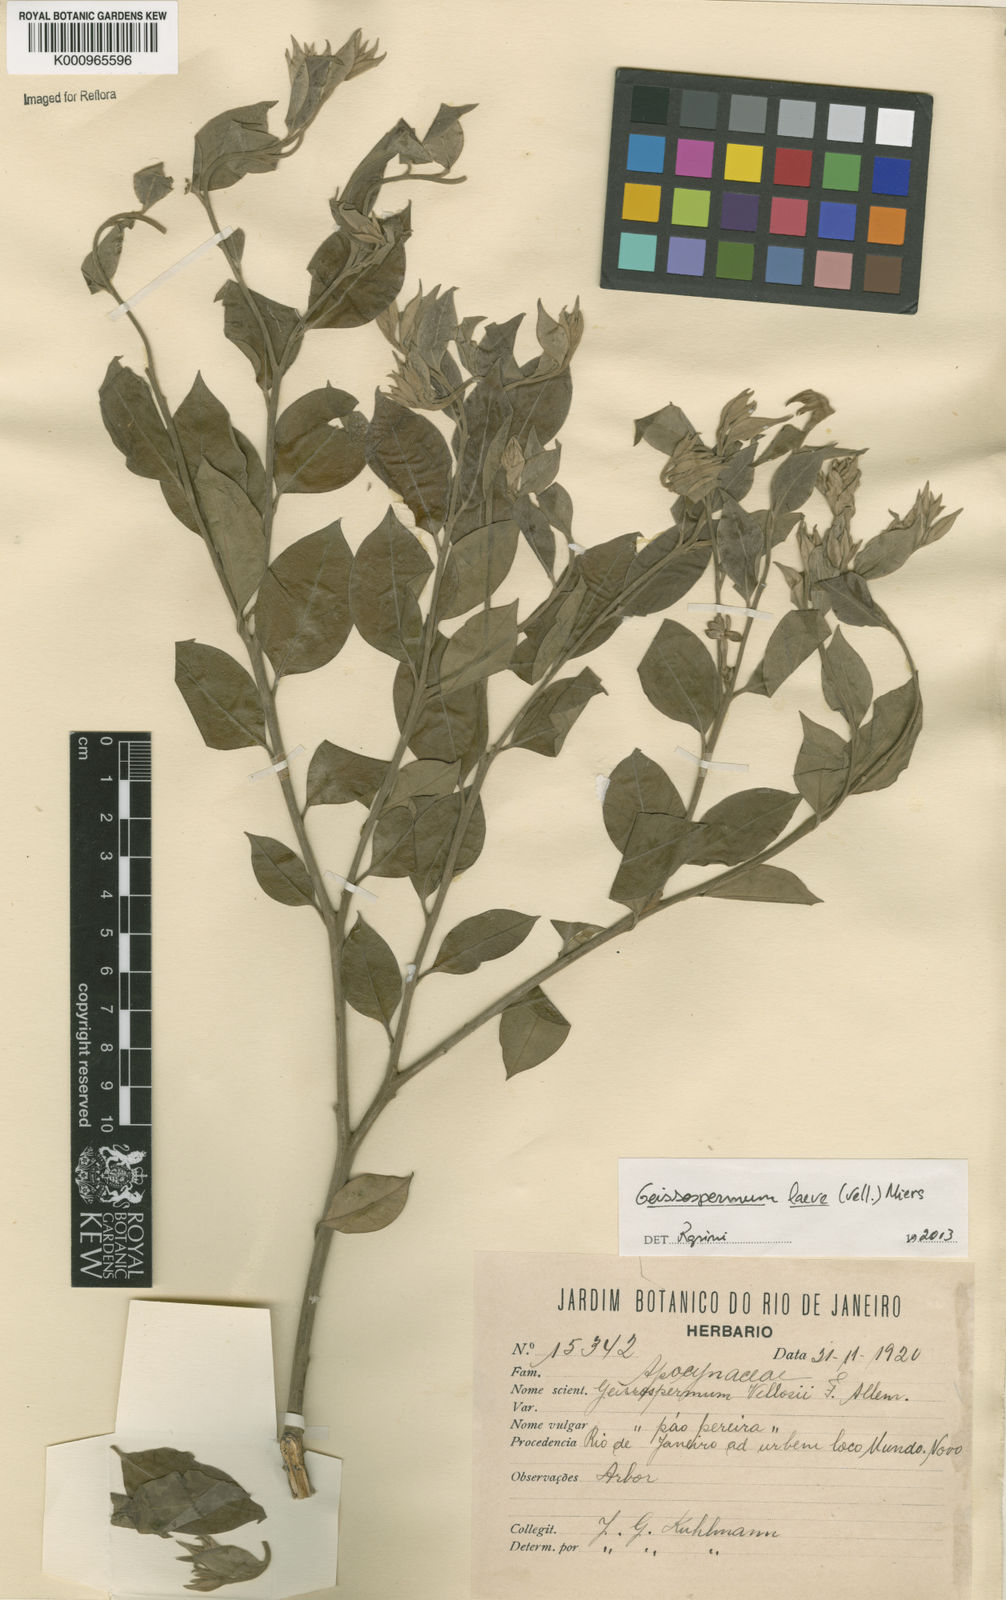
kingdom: Plantae
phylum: Tracheophyta
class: Magnoliopsida
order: Gentianales
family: Apocynaceae
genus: Geissospermum
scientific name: Geissospermum laeve
